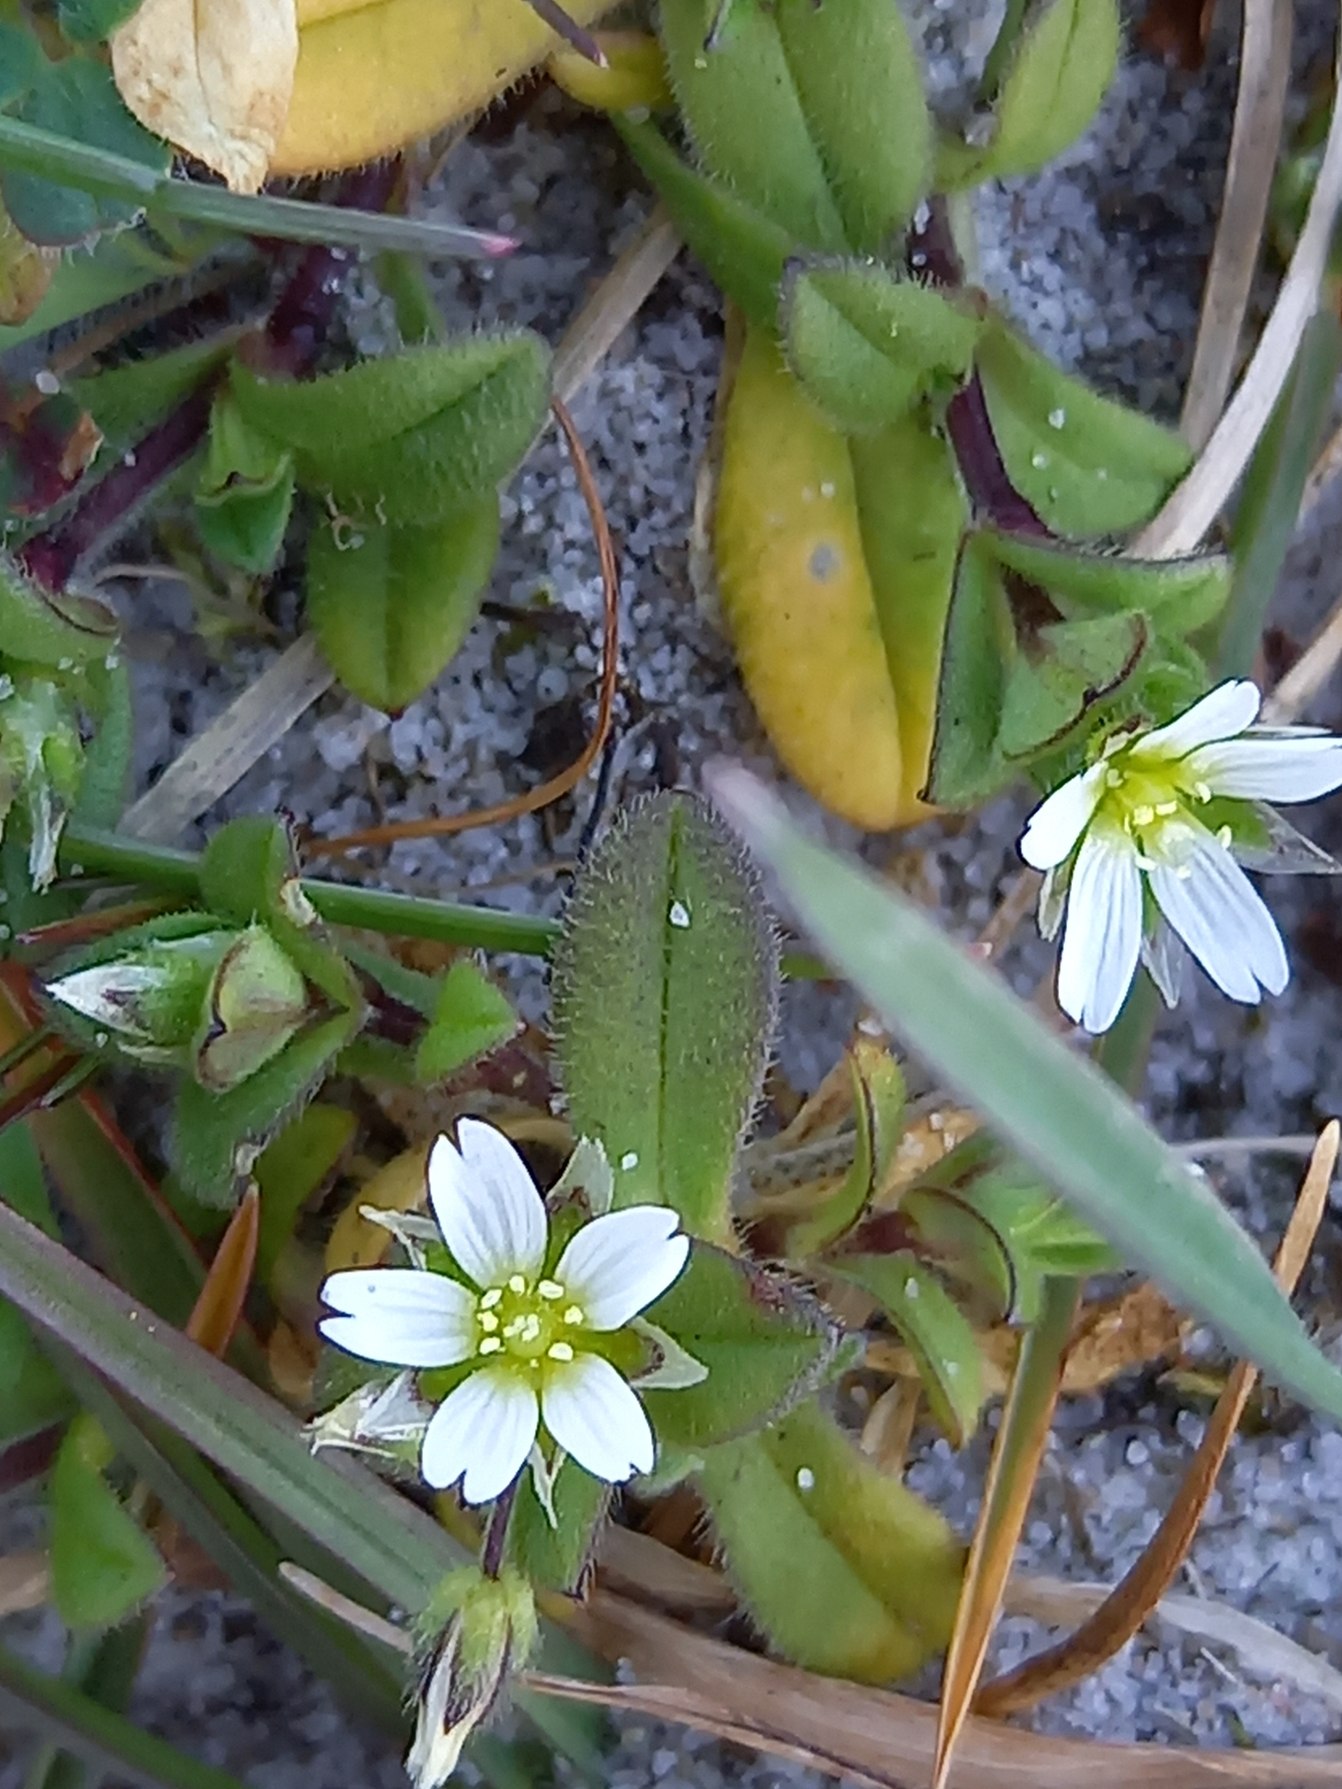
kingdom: Plantae
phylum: Tracheophyta
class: Magnoliopsida
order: Caryophyllales
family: Caryophyllaceae
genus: Cerastium
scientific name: Cerastium semidecandrum
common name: Femhannet hønsetarm
